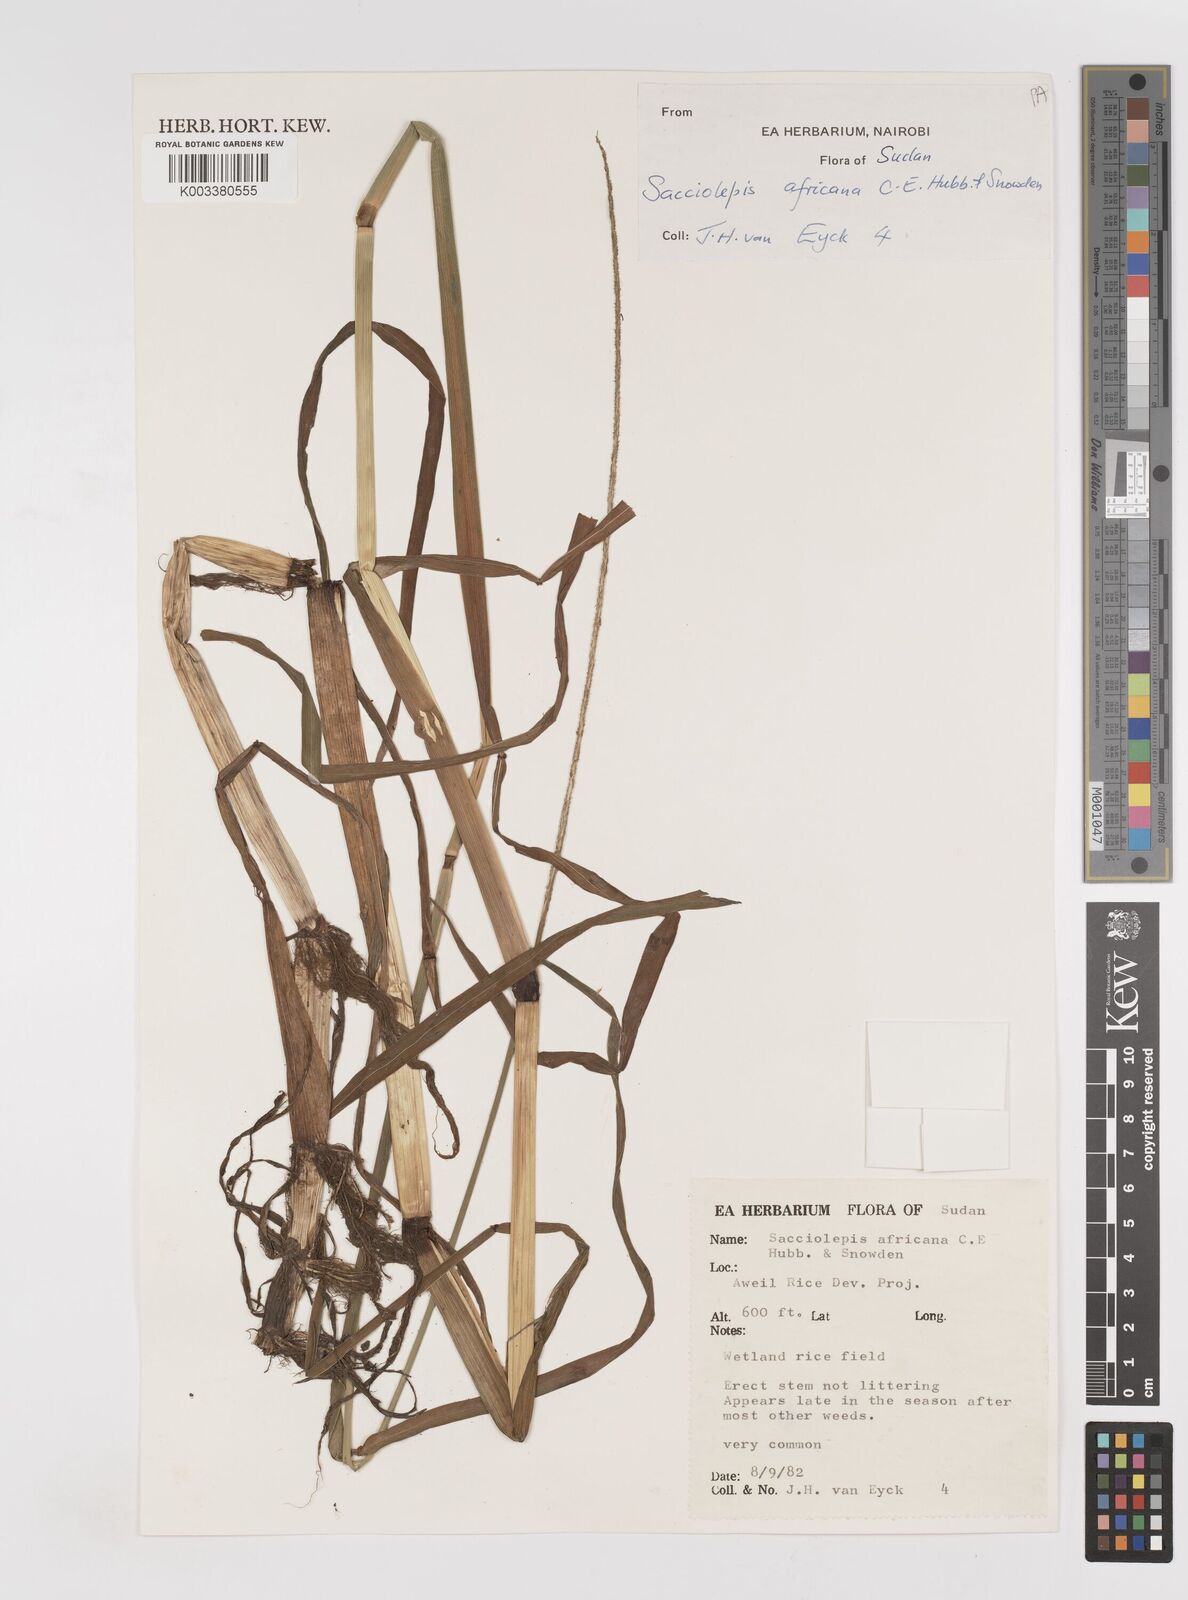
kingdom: Plantae
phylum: Tracheophyta
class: Liliopsida
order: Poales
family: Poaceae
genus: Sacciolepis
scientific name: Sacciolepis africana
